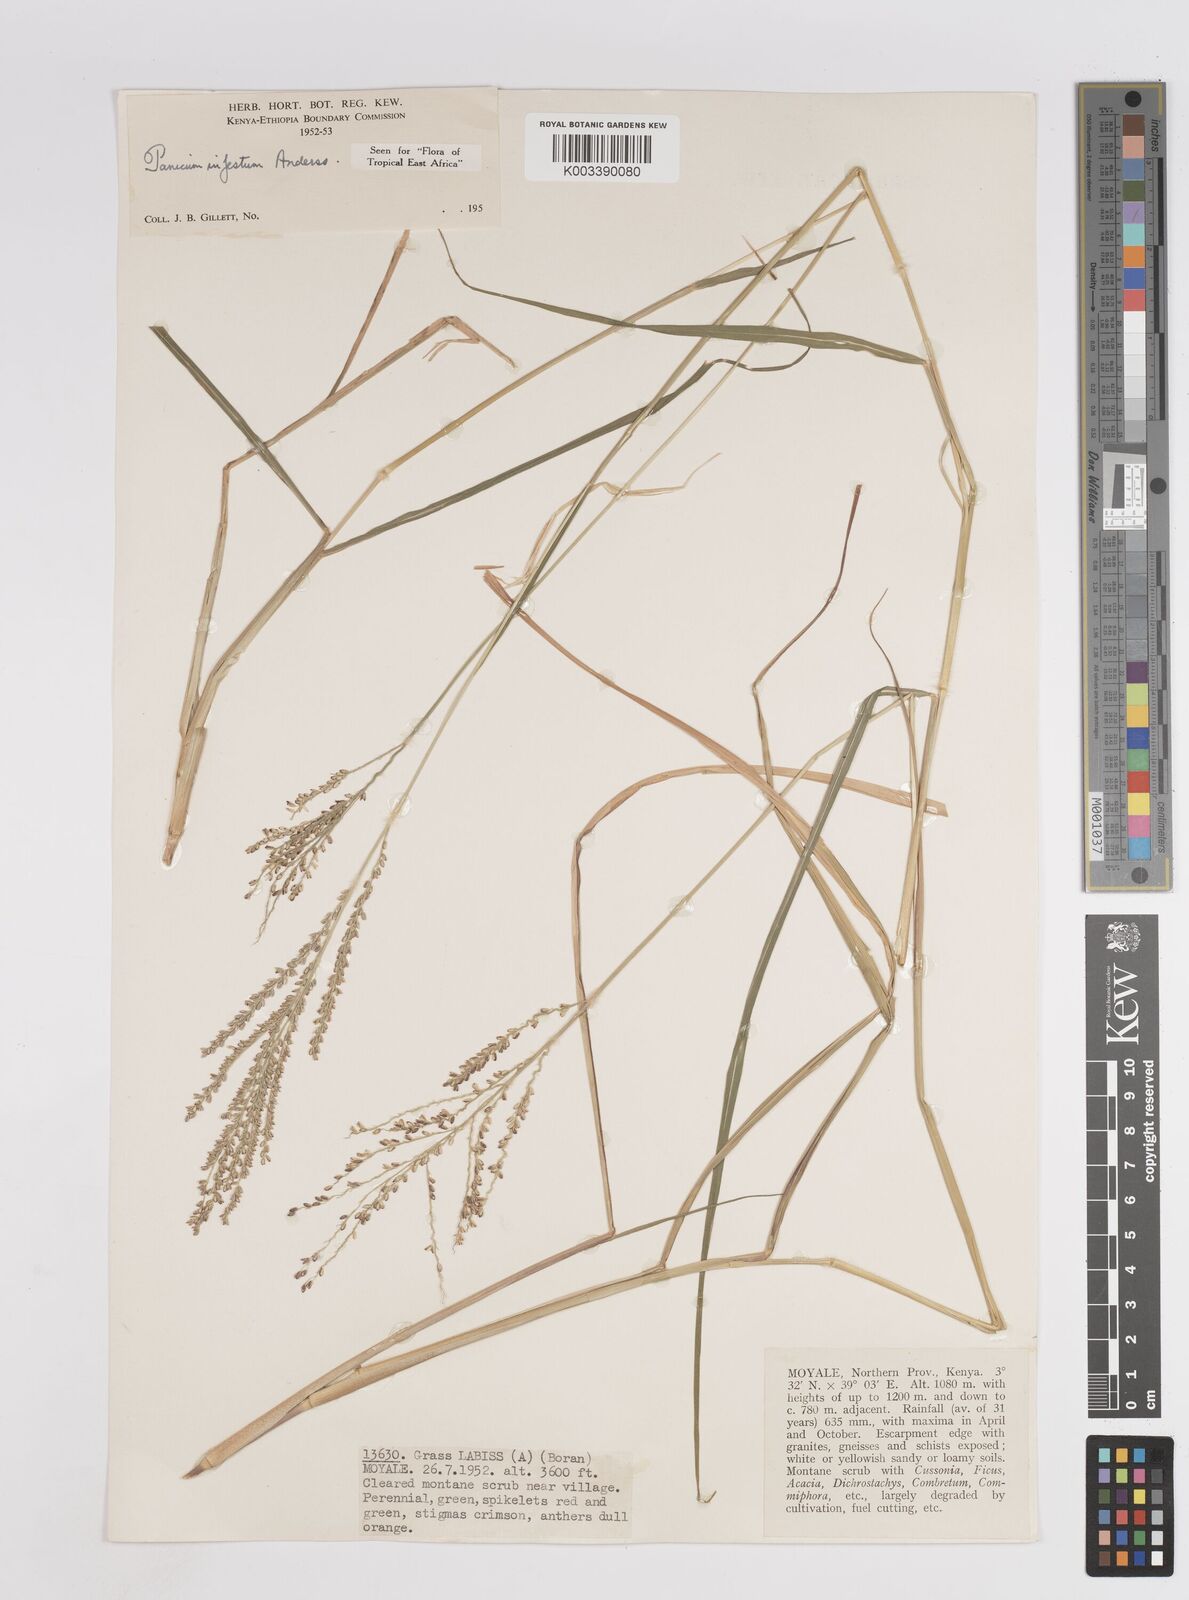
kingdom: Plantae
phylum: Tracheophyta
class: Liliopsida
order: Poales
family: Poaceae
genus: Megathyrsus
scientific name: Megathyrsus infestus
